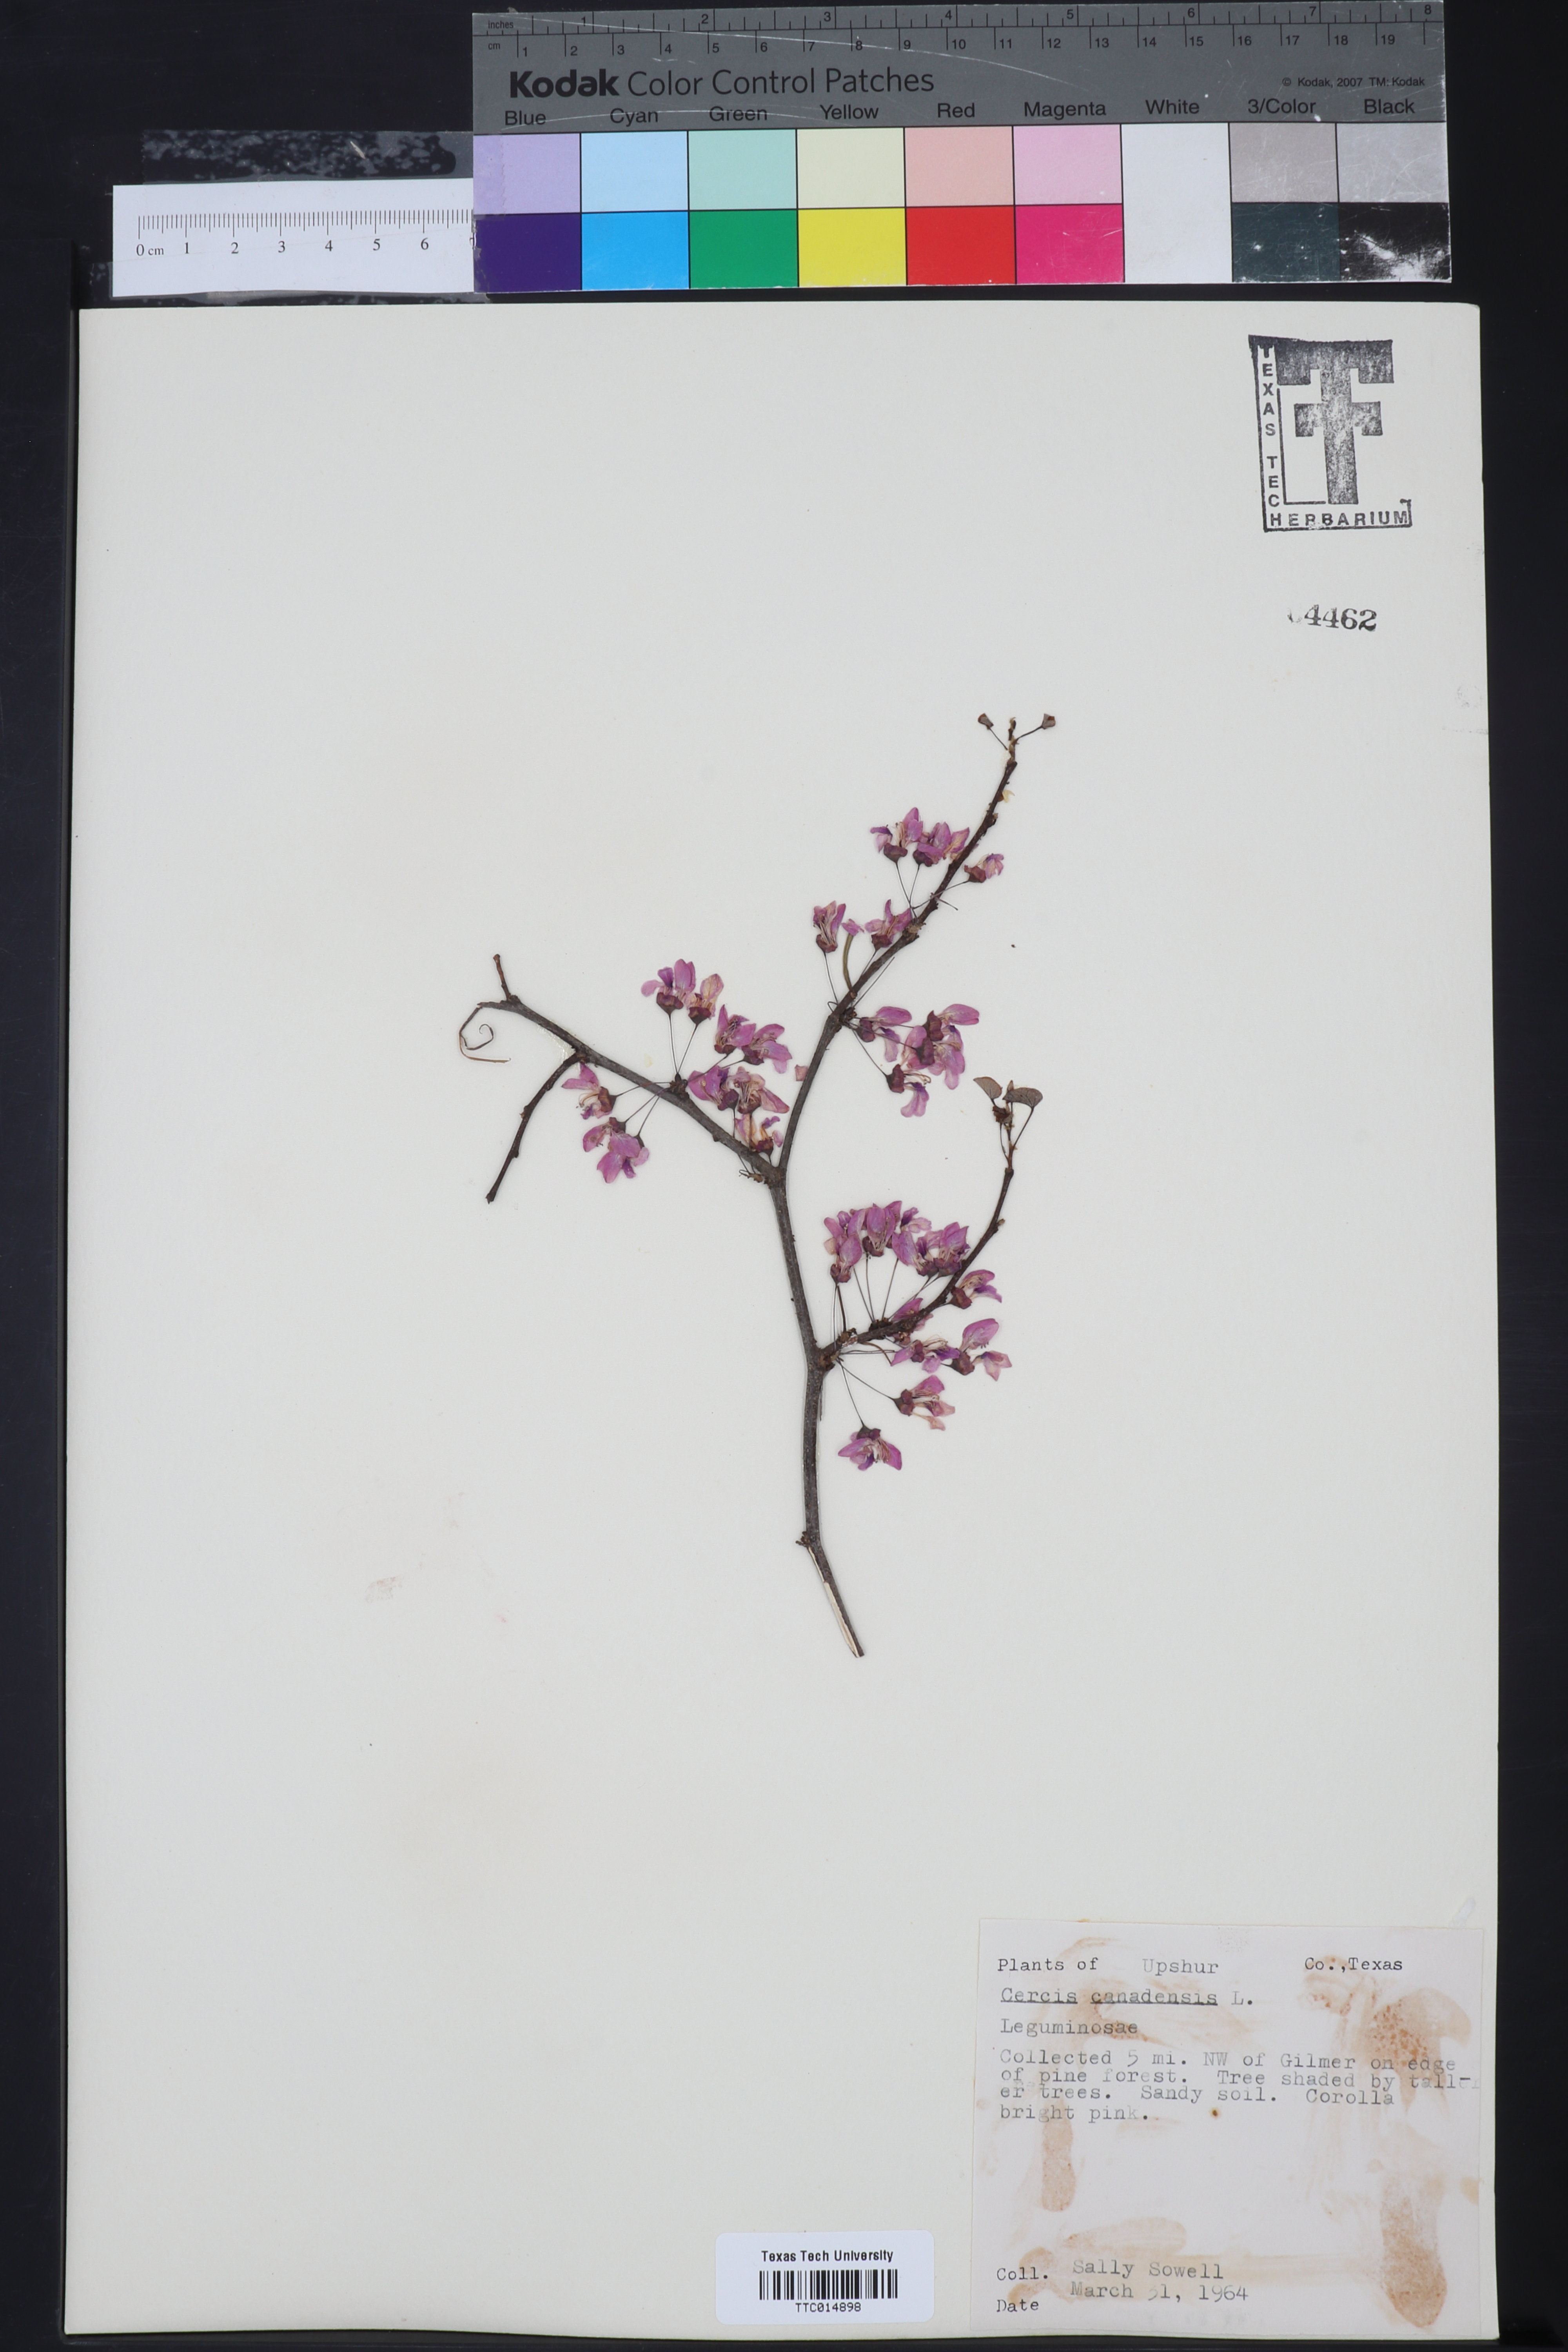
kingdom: Plantae
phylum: Tracheophyta
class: Magnoliopsida
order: Fabales
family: Fabaceae
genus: Cercis
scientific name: Cercis canadensis
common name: Eastern redbud
